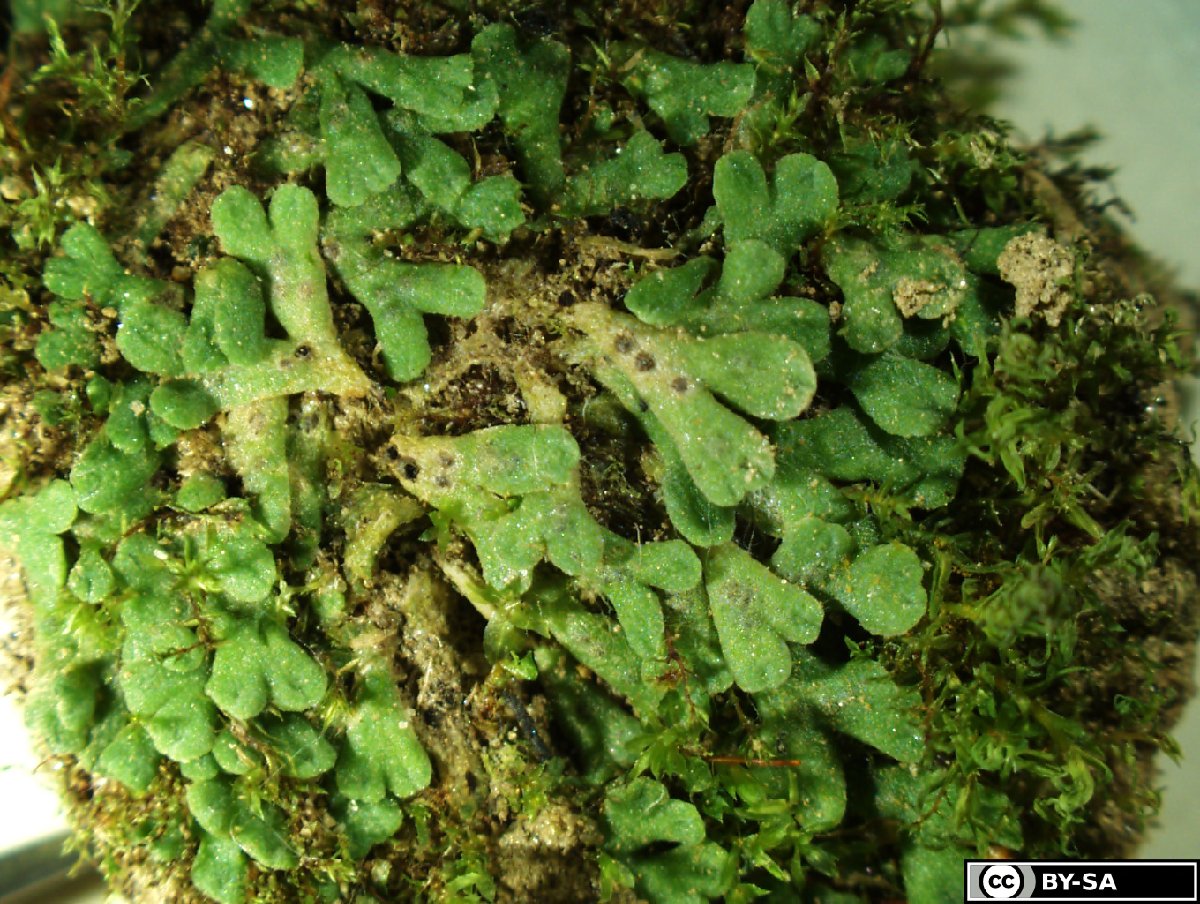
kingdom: Plantae
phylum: Marchantiophyta
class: Marchantiopsida
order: Marchantiales
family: Ricciaceae
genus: Riccia
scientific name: Riccia bifurca
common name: Lizard crystalwort
